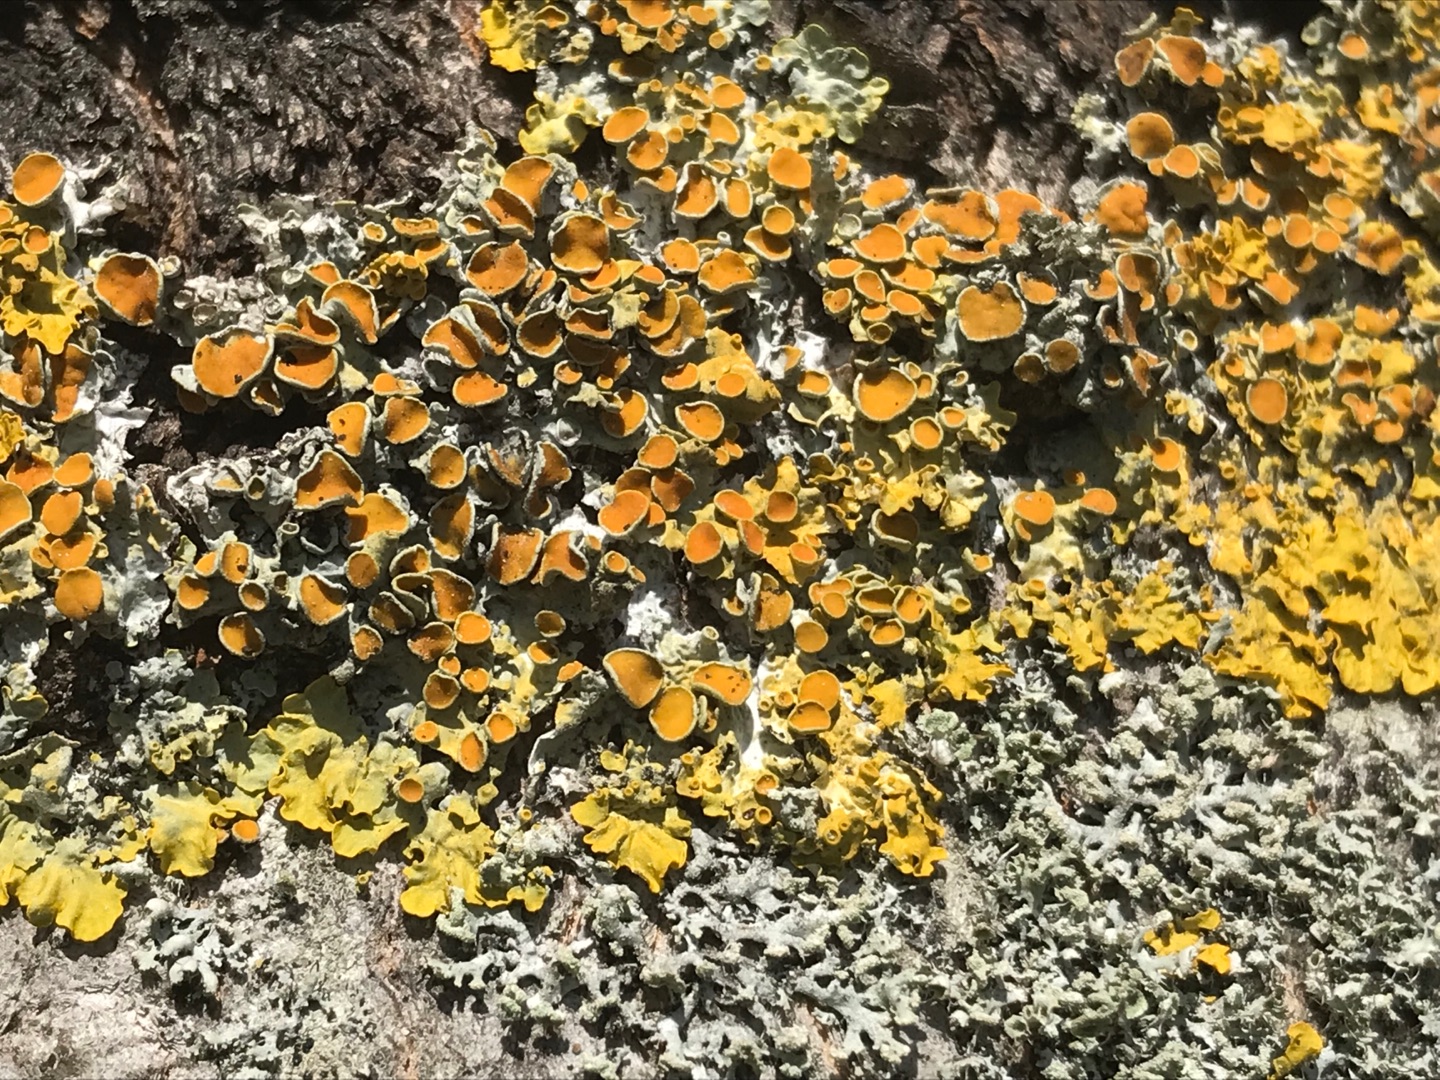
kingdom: Fungi
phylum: Ascomycota
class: Lecanoromycetes
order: Teloschistales
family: Teloschistaceae
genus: Xanthoria
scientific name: Xanthoria parietina
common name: Almindelig væggelav
